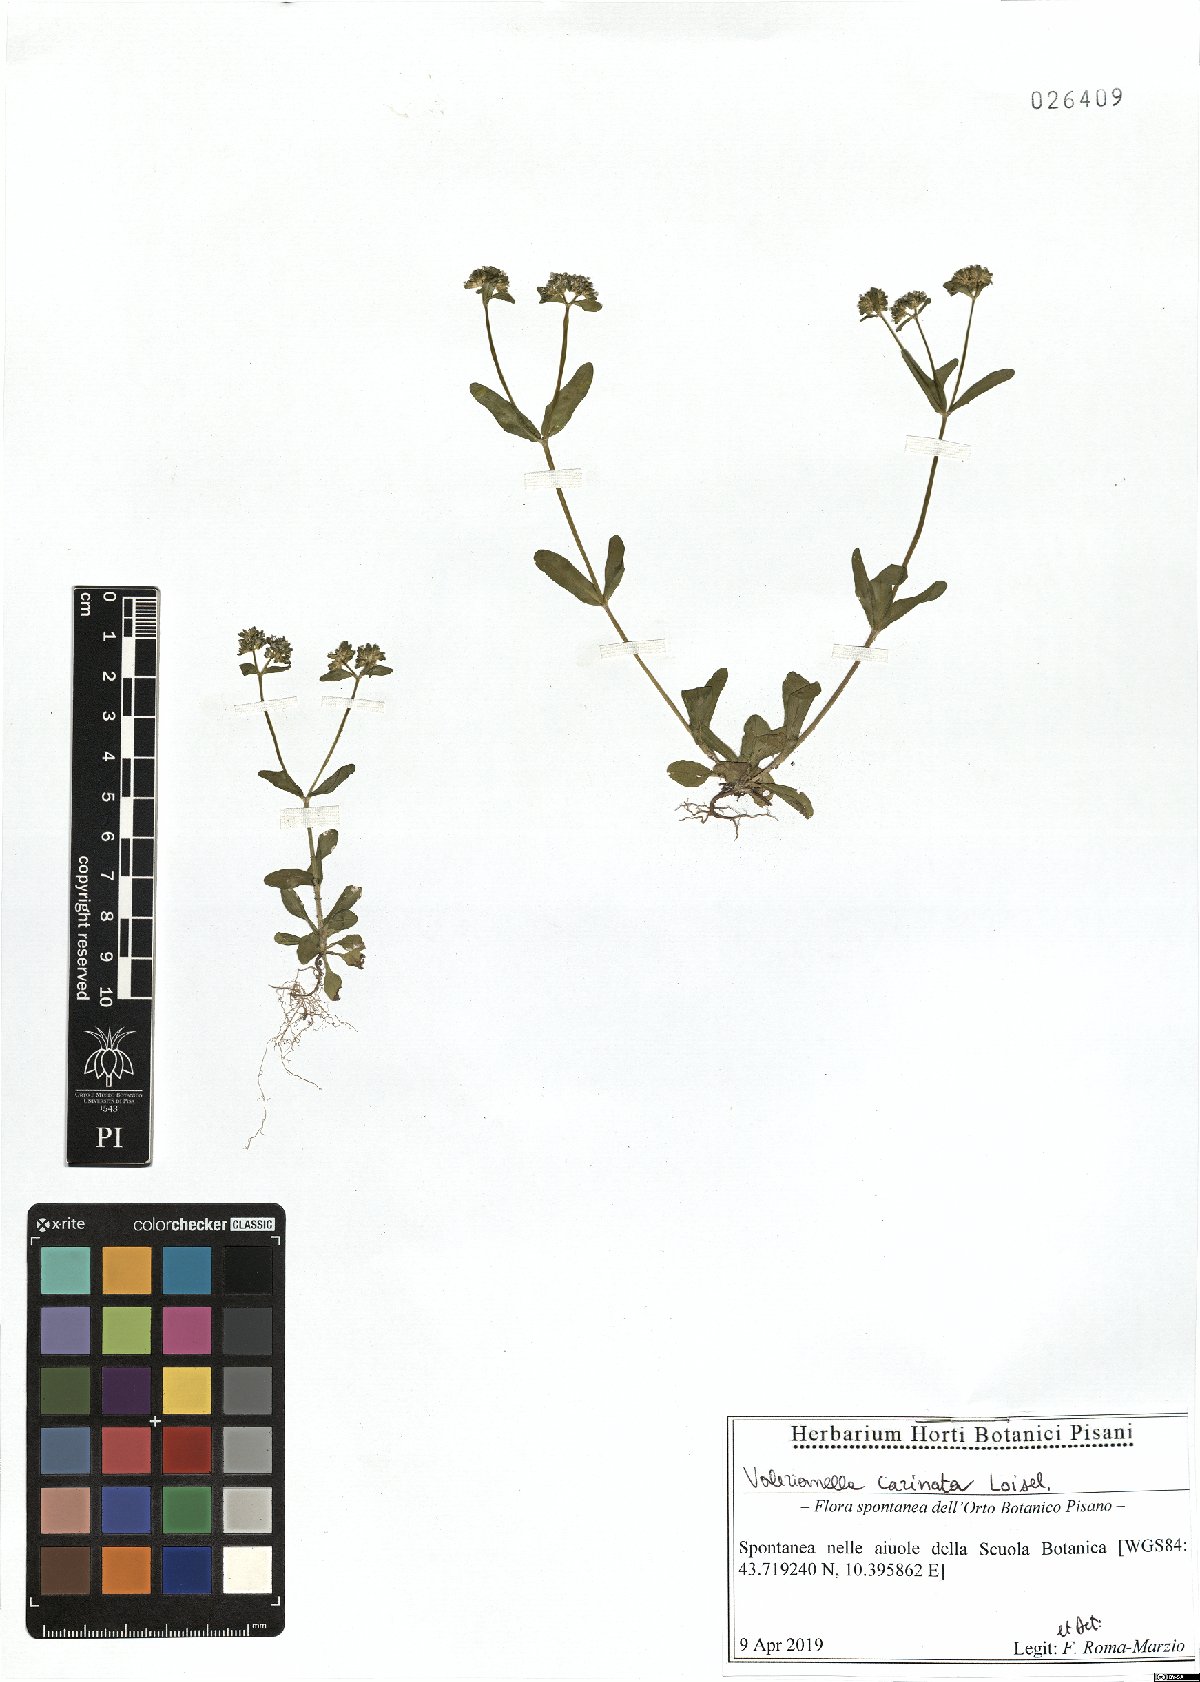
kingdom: Plantae
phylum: Tracheophyta
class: Magnoliopsida
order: Dipsacales
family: Caprifoliaceae
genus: Valerianella
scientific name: Valerianella carinata
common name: Keeled-fruited cornsalad
